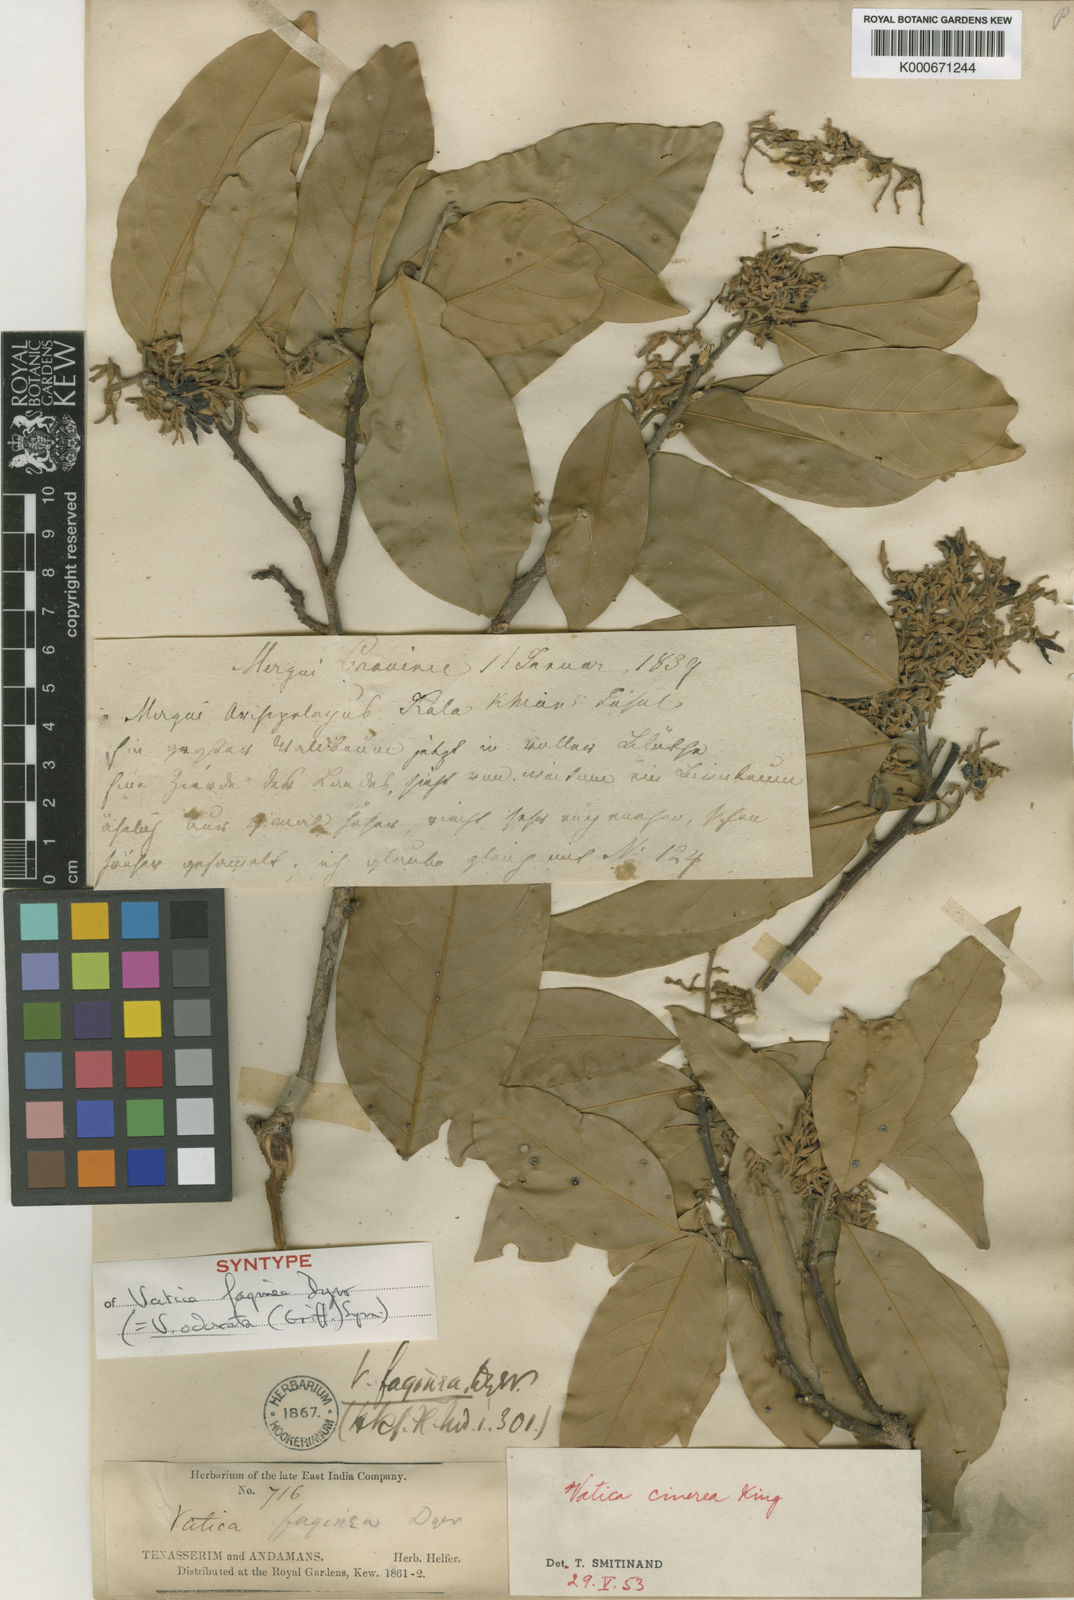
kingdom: Plantae
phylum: Tracheophyta
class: Magnoliopsida
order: Malvales
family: Dipterocarpaceae
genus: Vatica
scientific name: Vatica odorata
